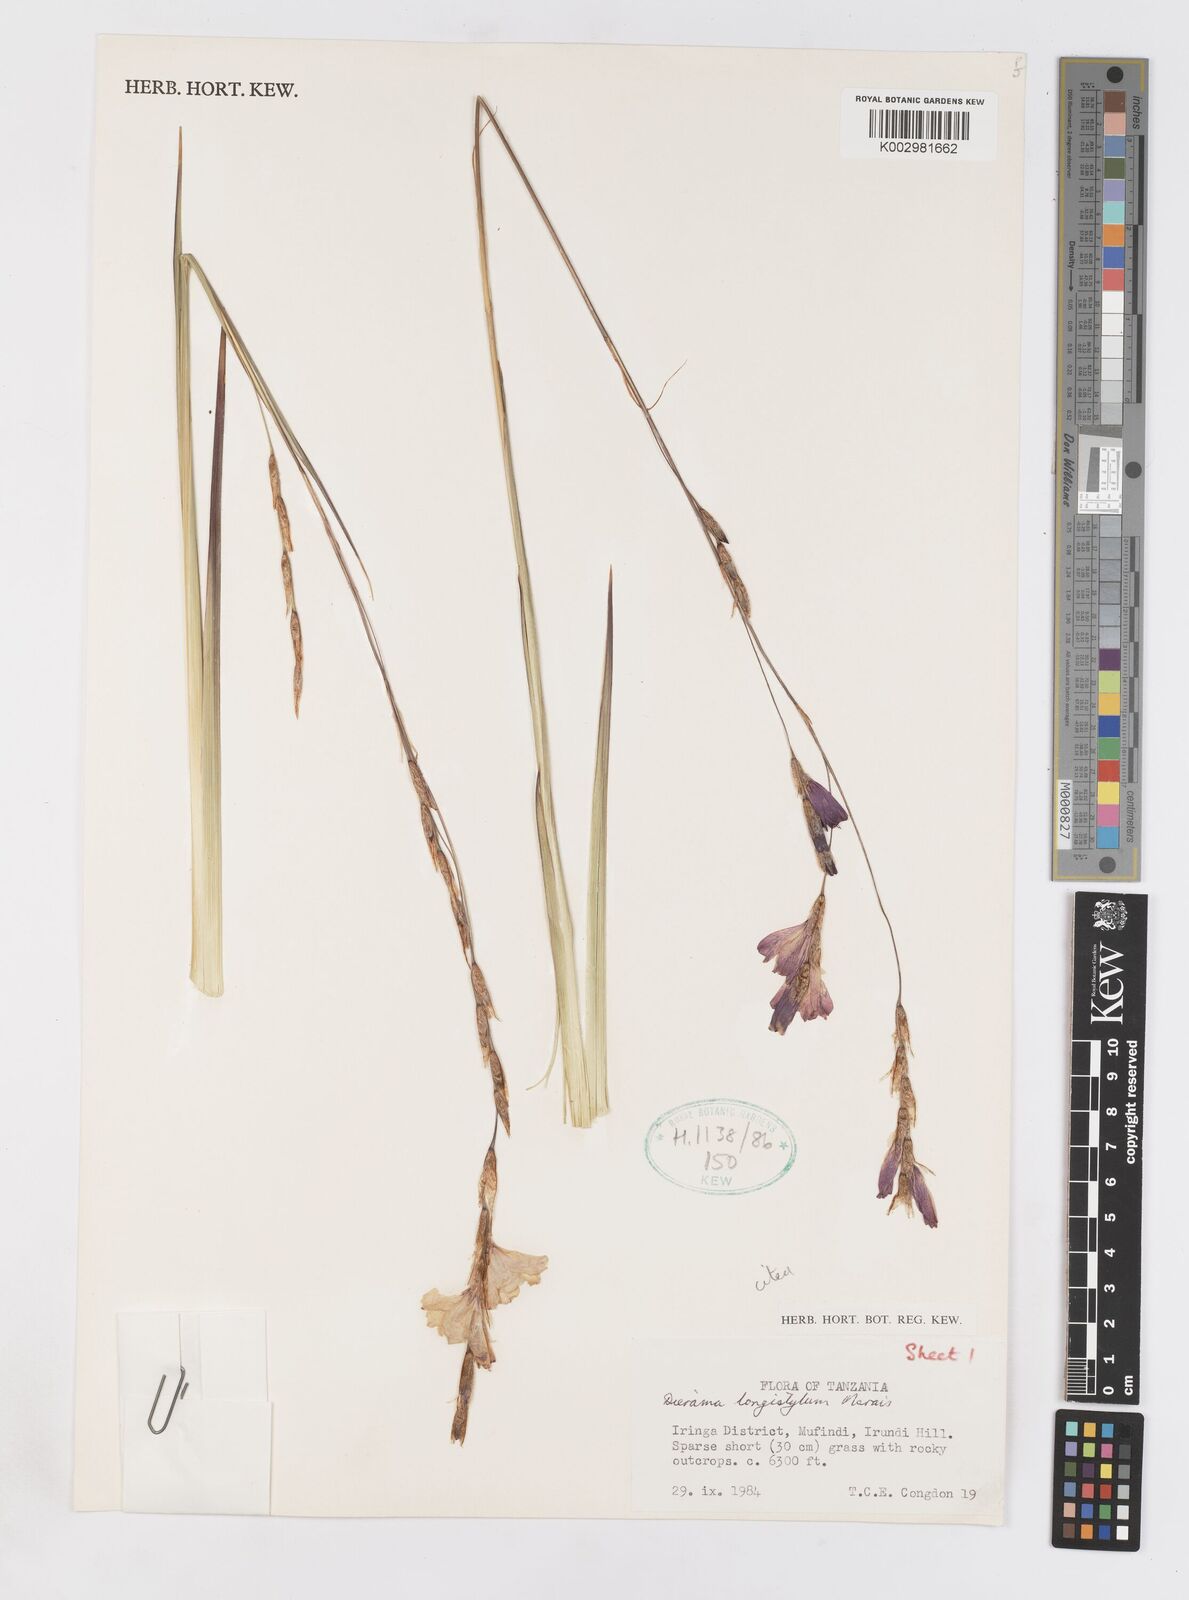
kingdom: Plantae
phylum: Tracheophyta
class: Liliopsida
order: Asparagales
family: Iridaceae
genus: Dierama
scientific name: Dierama longistylum
